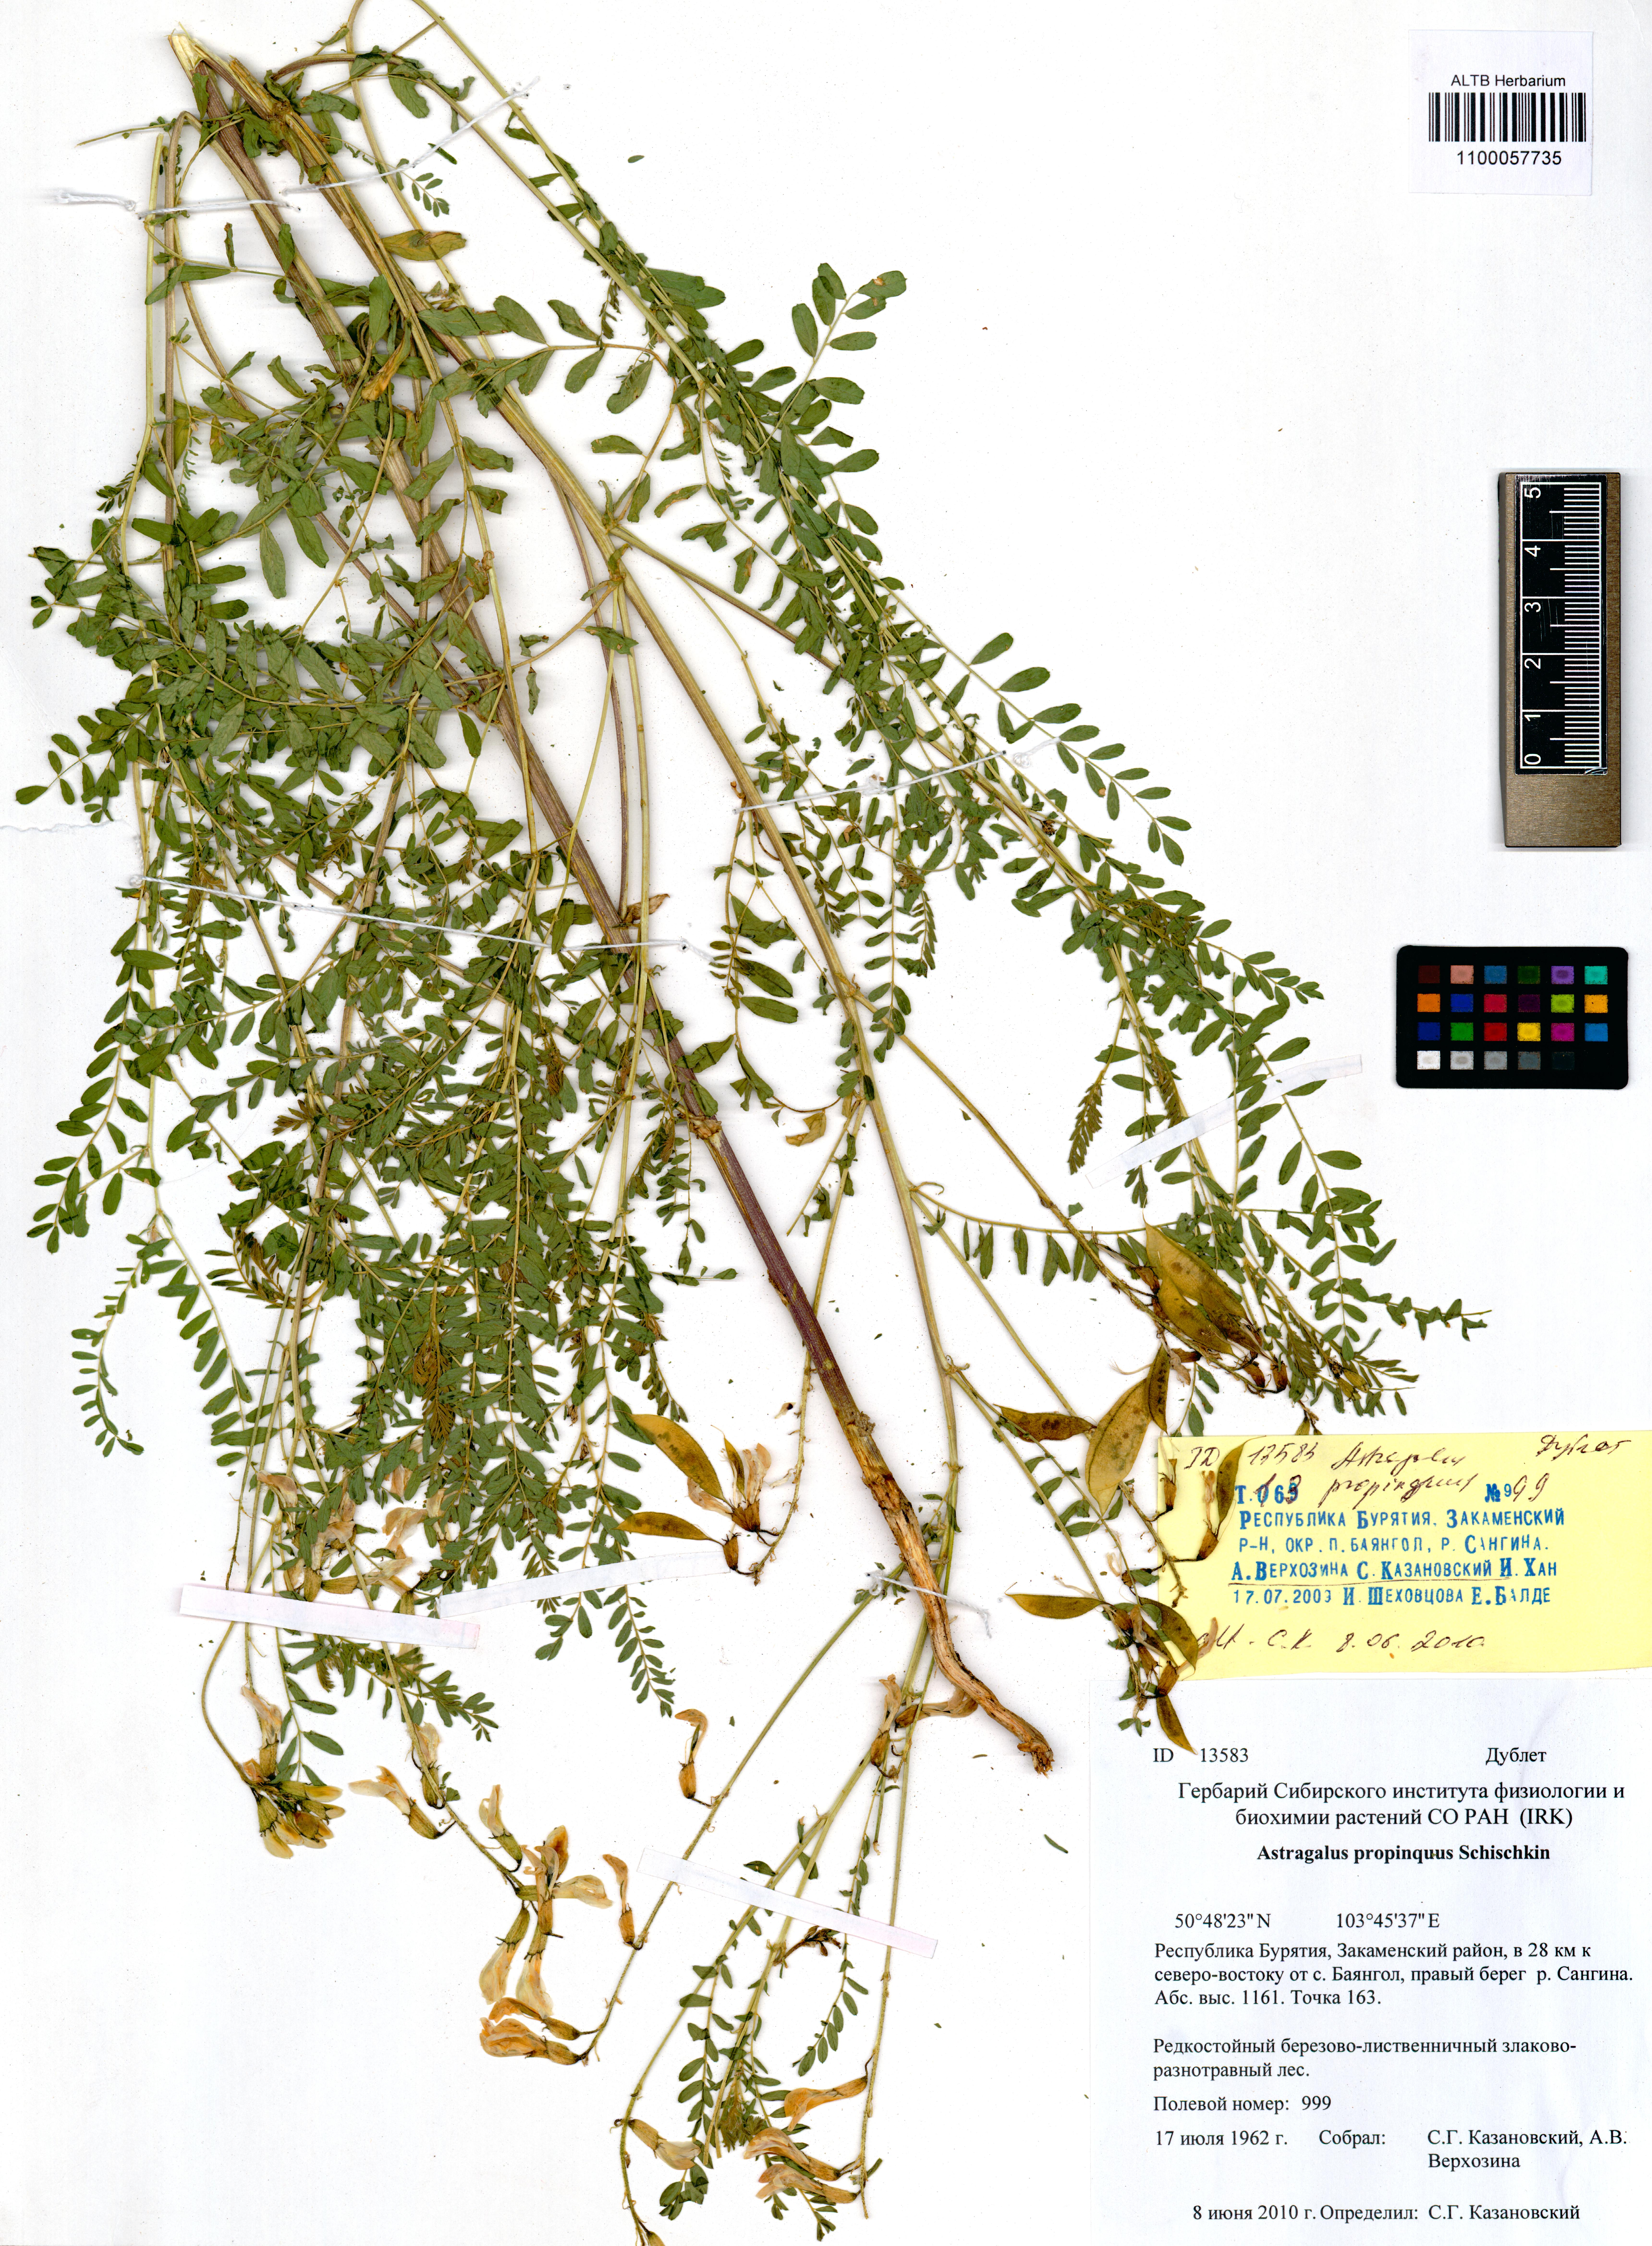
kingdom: Plantae
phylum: Tracheophyta
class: Magnoliopsida
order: Fabales
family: Fabaceae
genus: Astragalus
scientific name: Astragalus mongholicus
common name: Membranous milk-vetch
